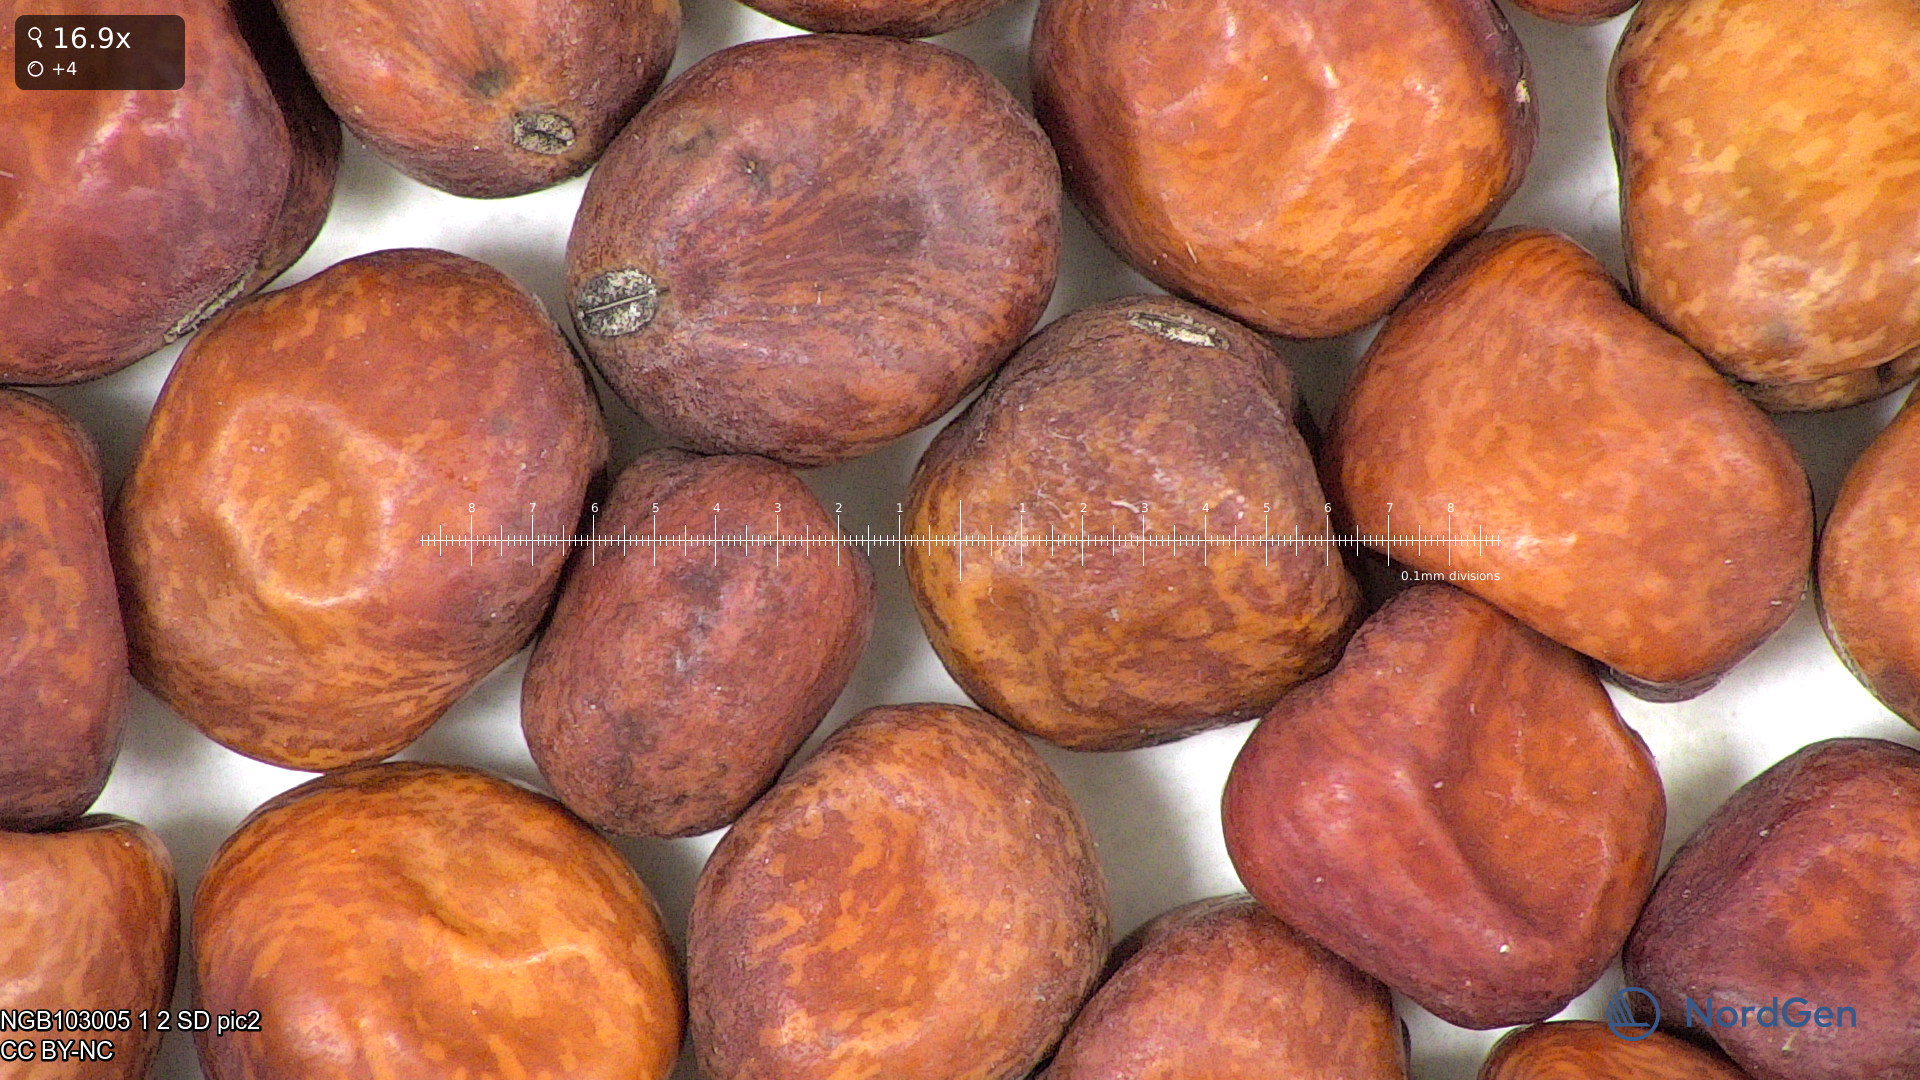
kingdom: Plantae
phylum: Tracheophyta
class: Magnoliopsida
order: Fabales
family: Fabaceae
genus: Lathyrus
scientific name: Lathyrus oleraceus
